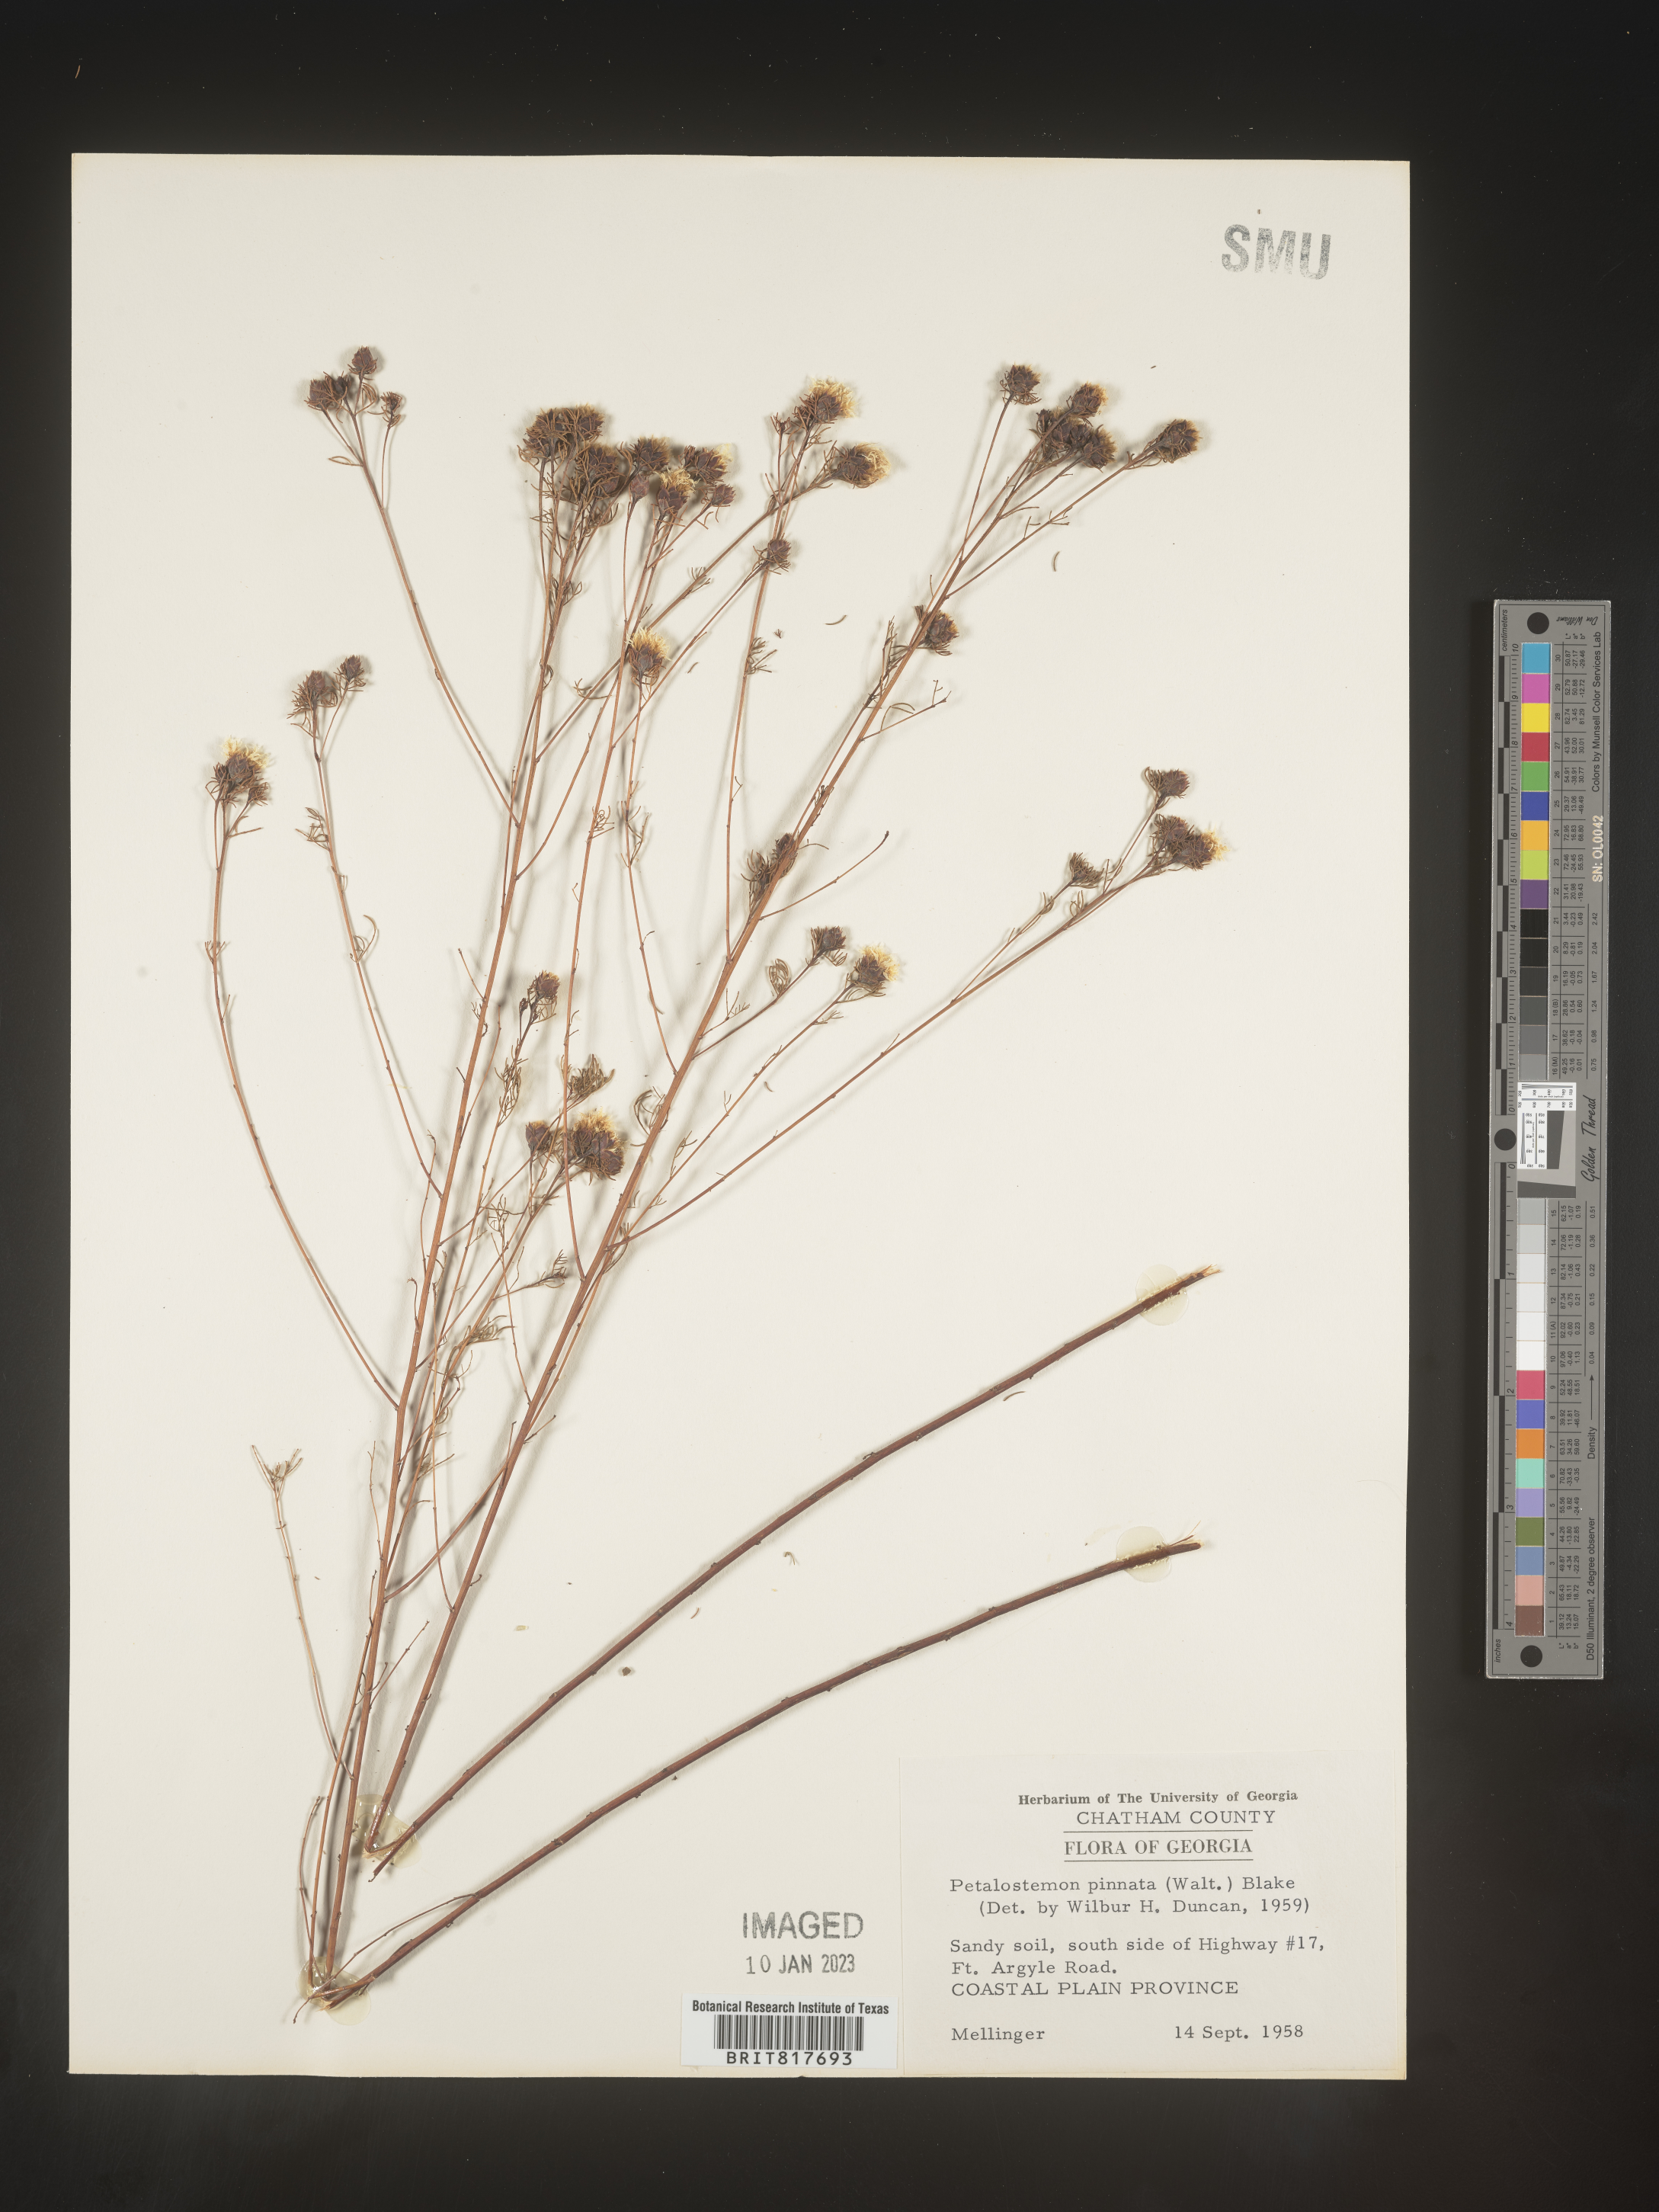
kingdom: Plantae
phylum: Tracheophyta
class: Magnoliopsida
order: Fabales
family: Fabaceae
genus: Dalea
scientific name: Dalea pinnata
